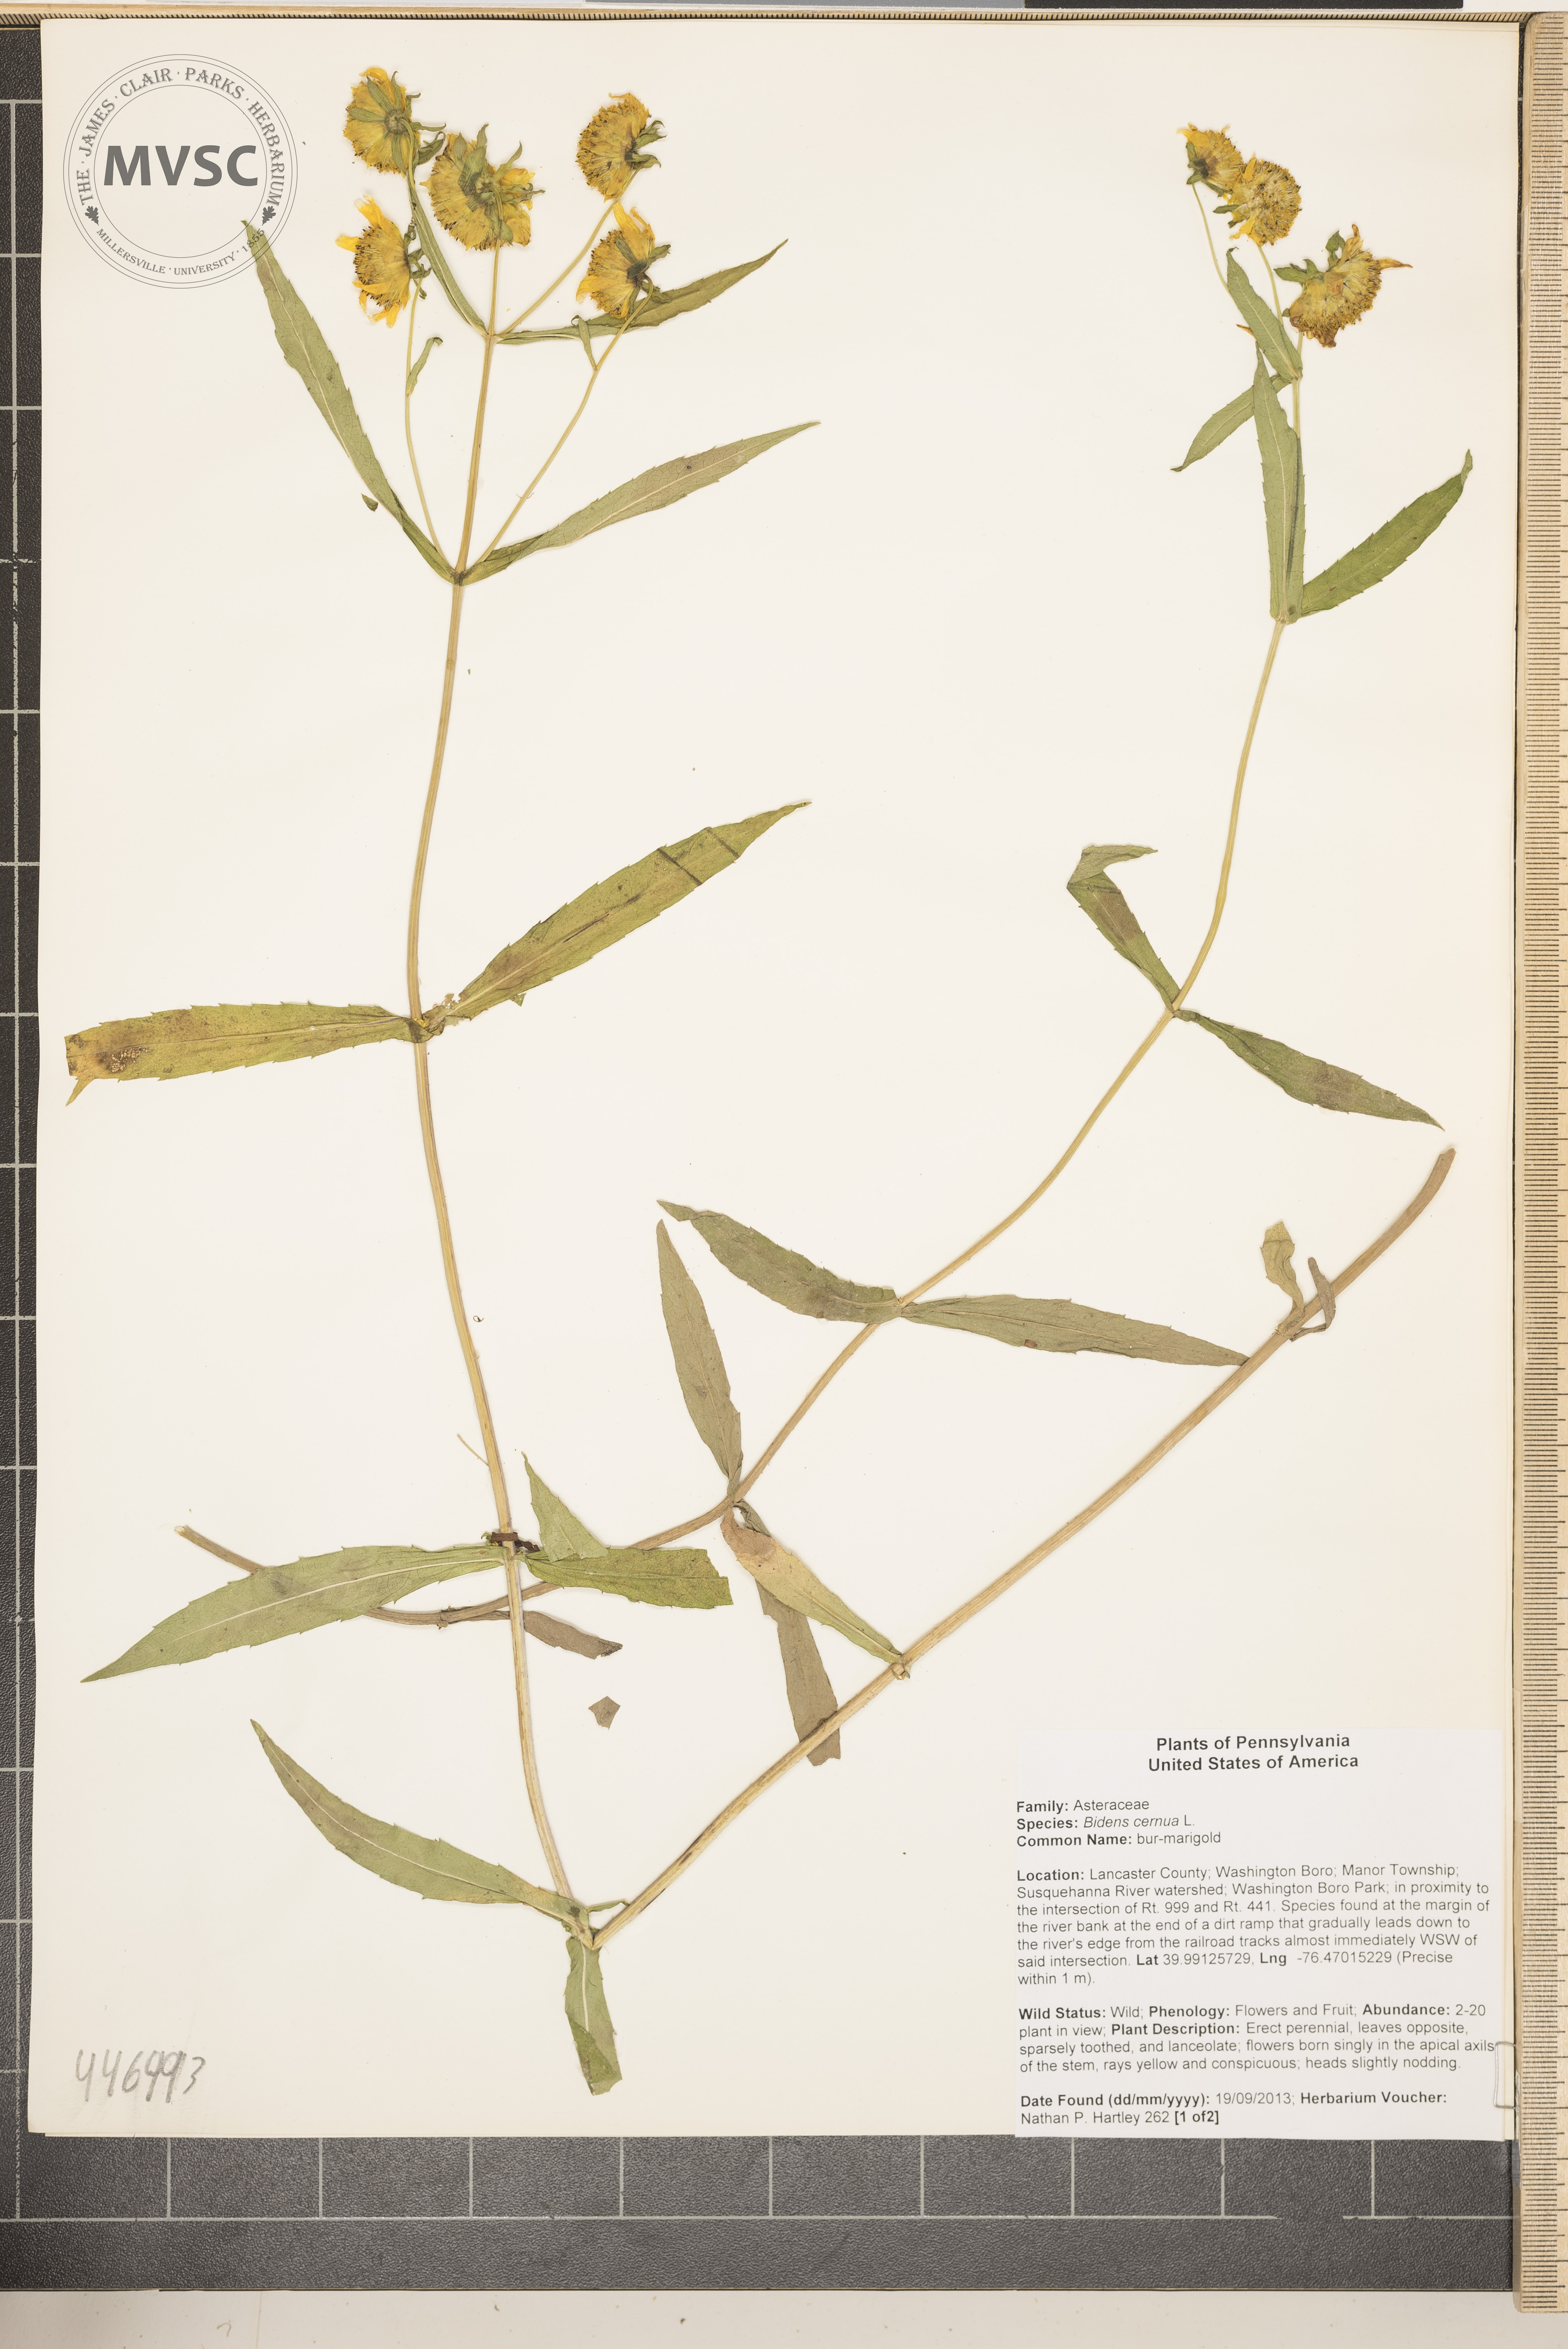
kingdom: Plantae
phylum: Tracheophyta
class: Magnoliopsida
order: Asterales
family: Asteraceae
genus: Bidens
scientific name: Bidens cernua
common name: Nodding bur-marigold
